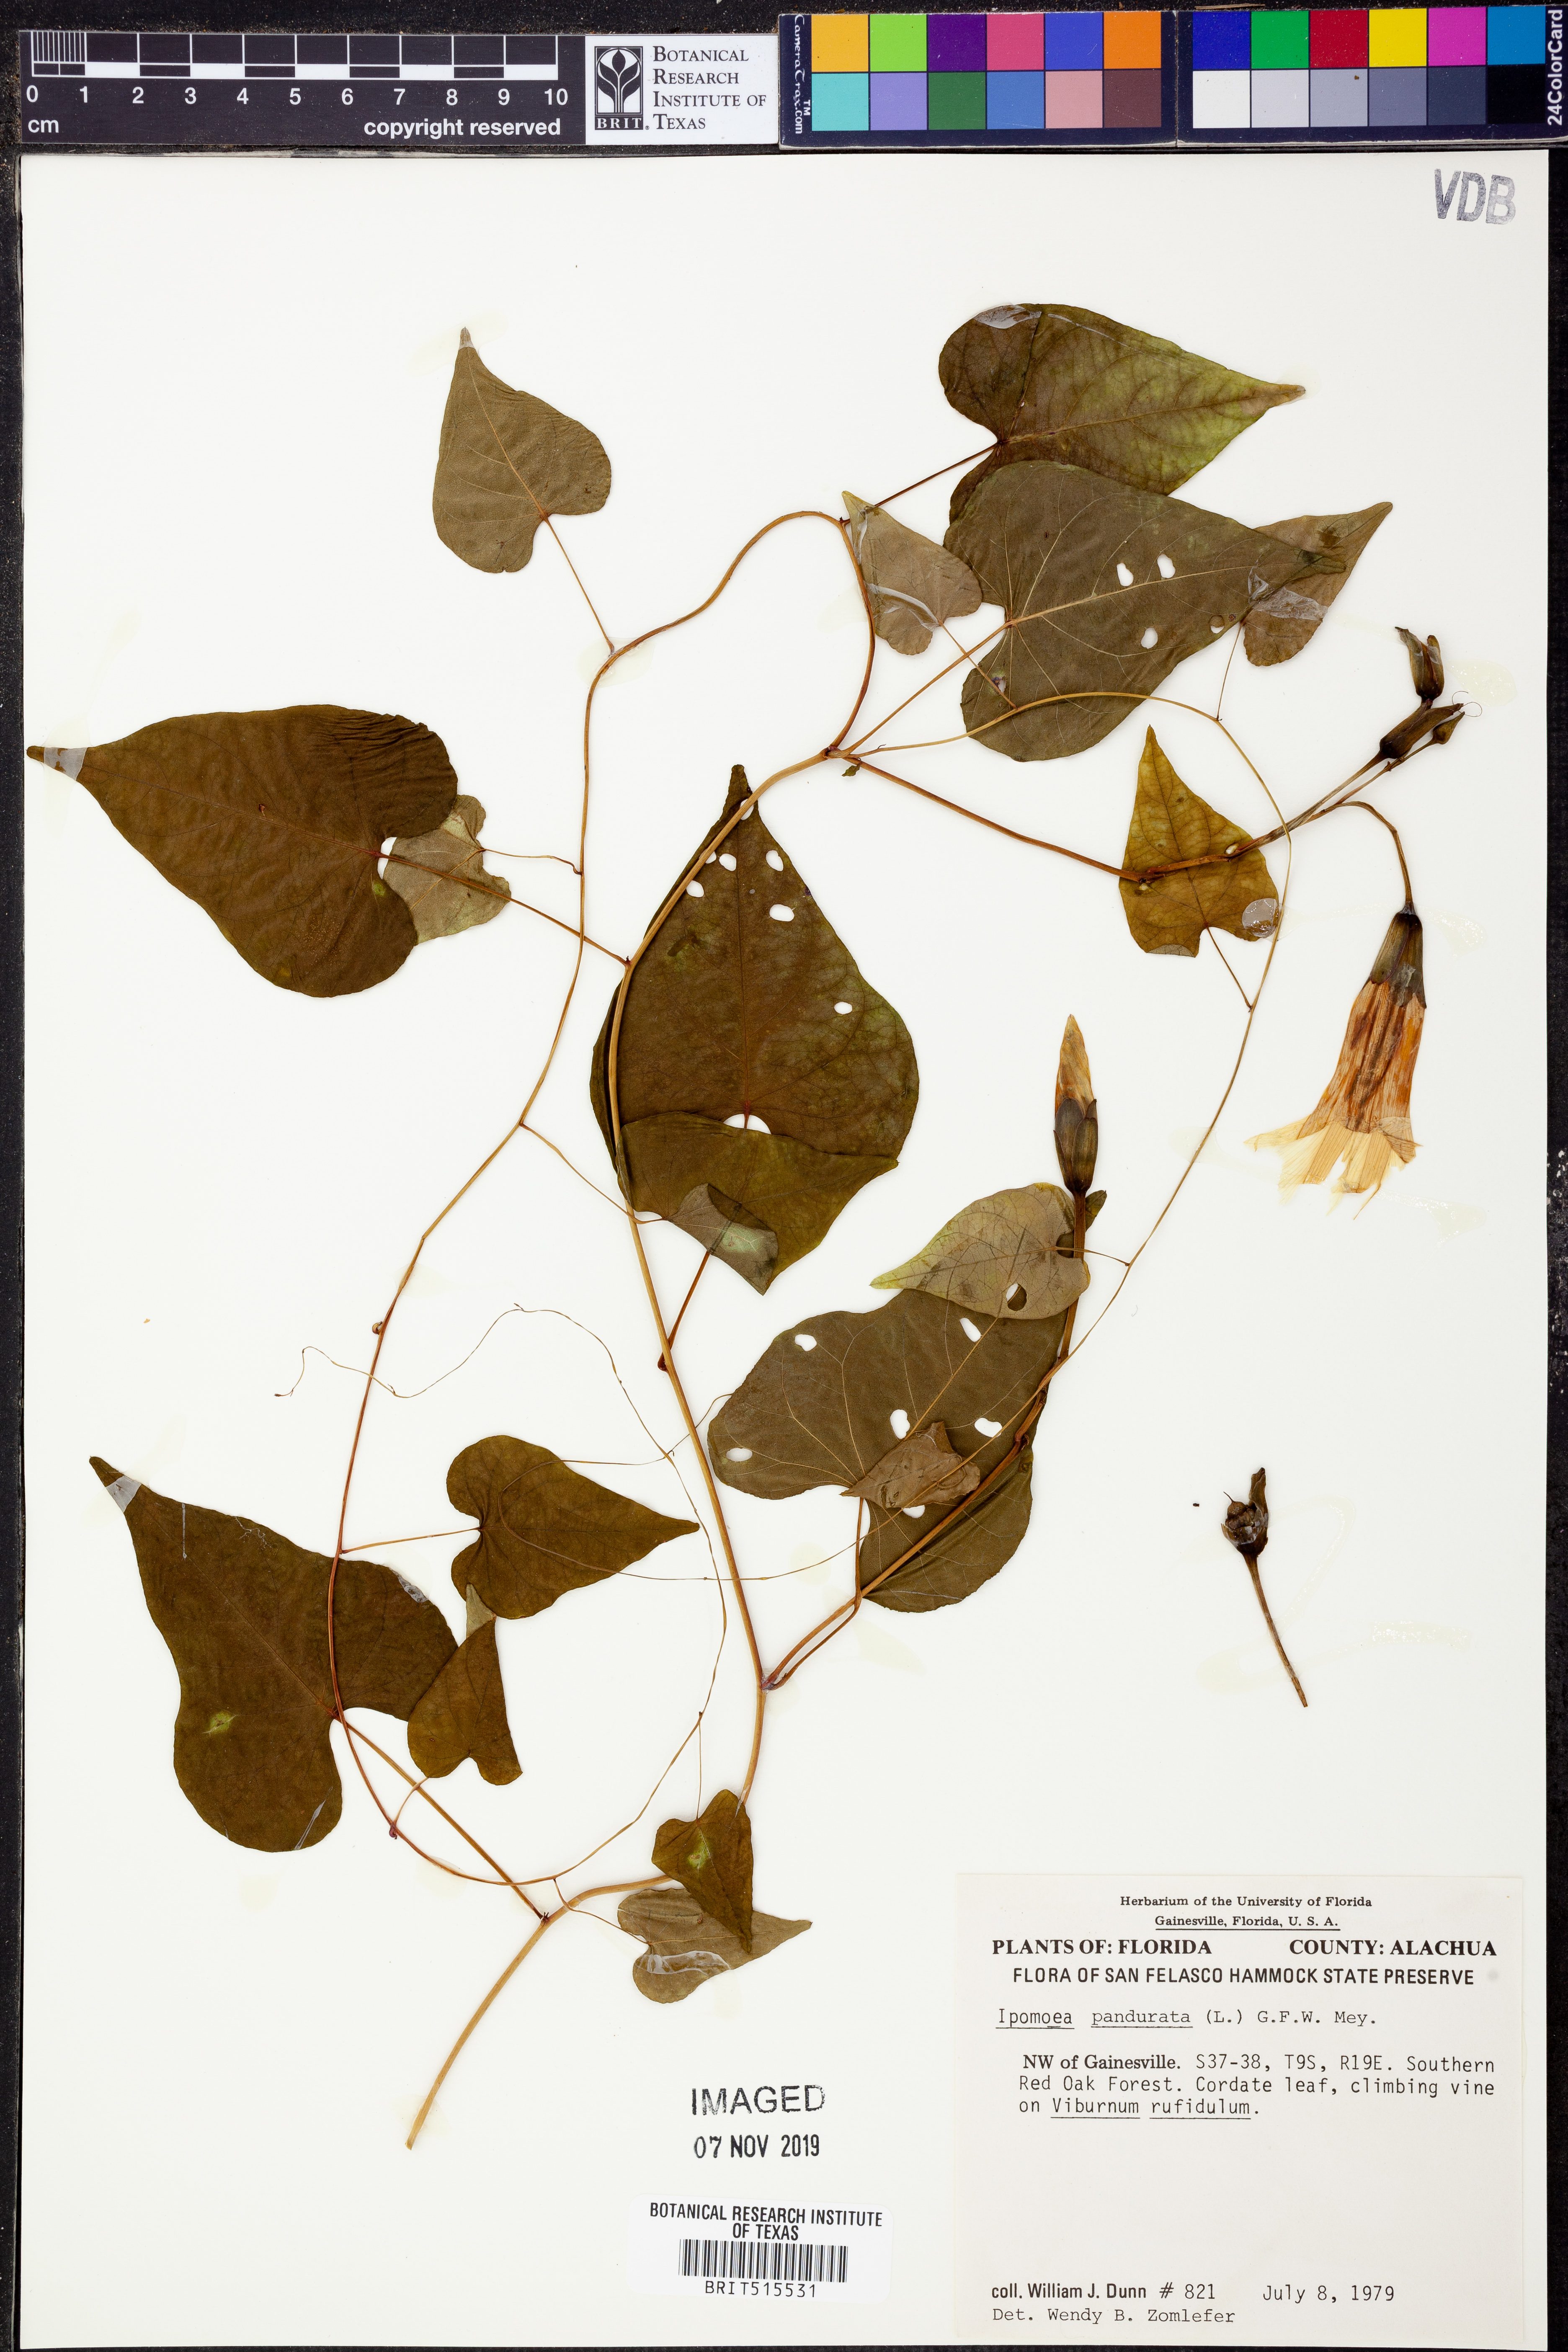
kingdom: Plantae
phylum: Tracheophyta
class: Magnoliopsida
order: Solanales
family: Convolvulaceae
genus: Ipomoea
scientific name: Ipomoea pandurata
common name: Man-of-the-earth
